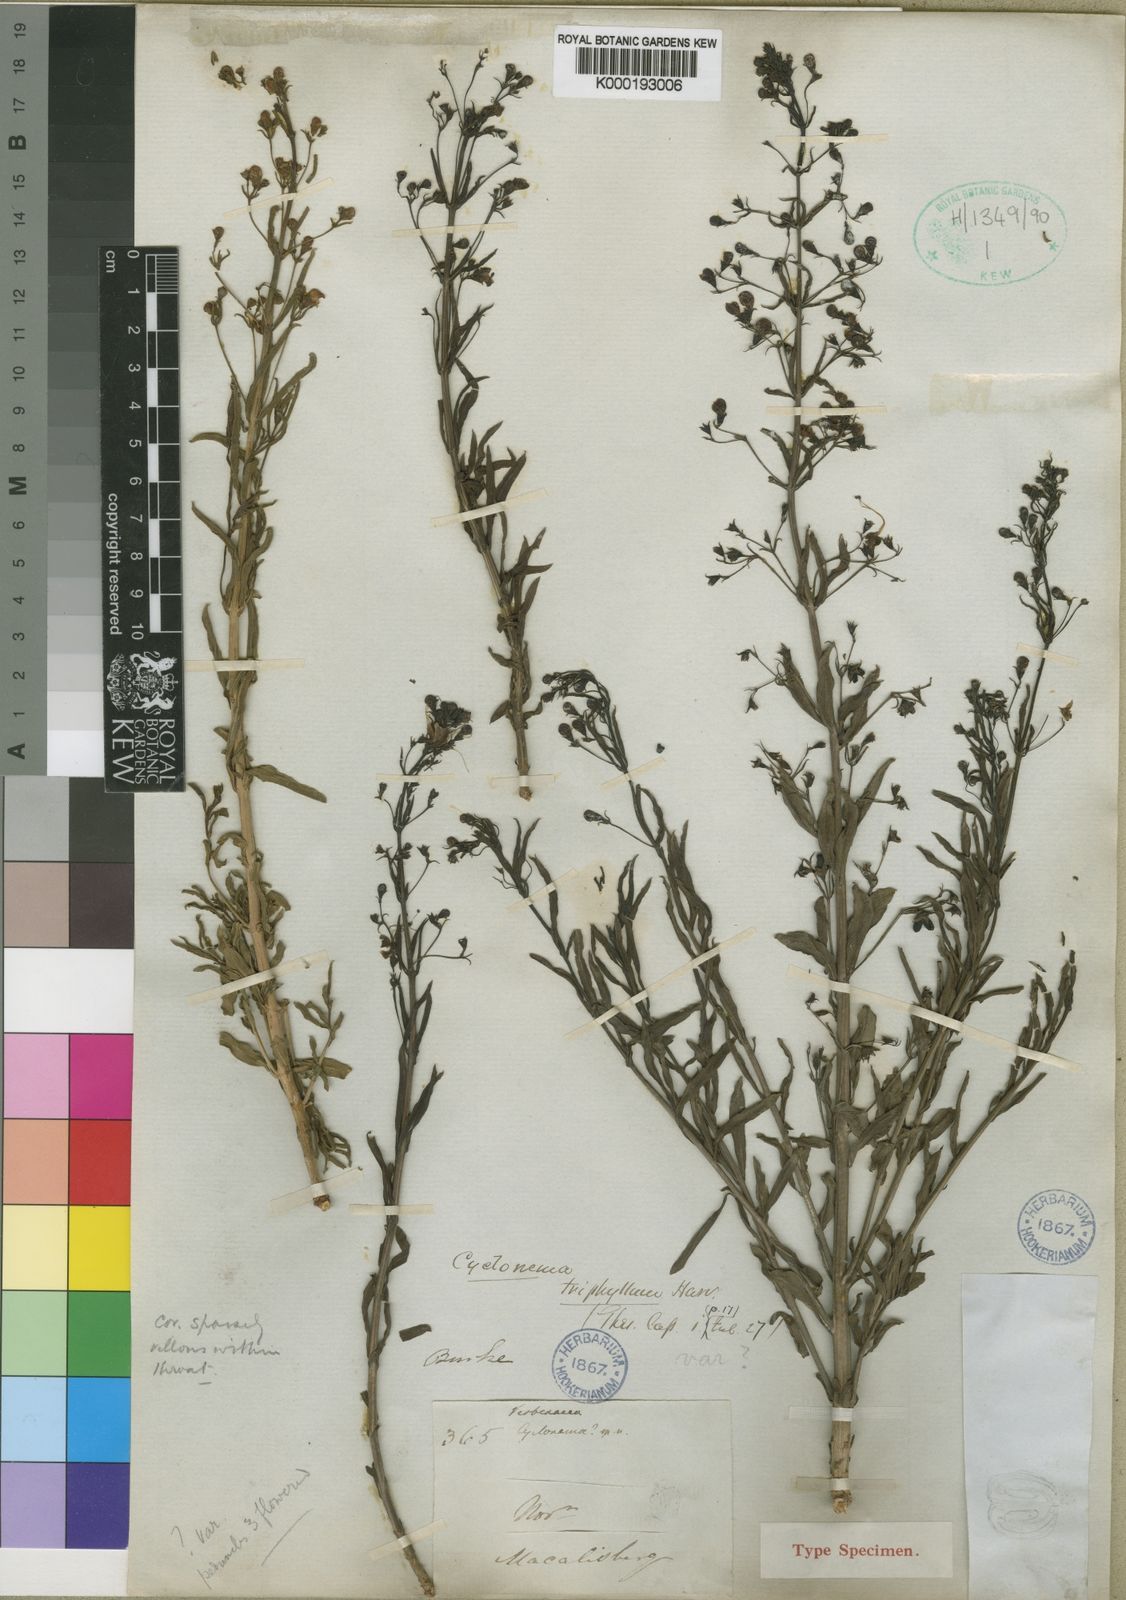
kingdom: Plantae
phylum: Tracheophyta
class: Magnoliopsida
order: Lamiales
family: Lamiaceae
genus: Rotheca
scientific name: Rotheca hirsuta
